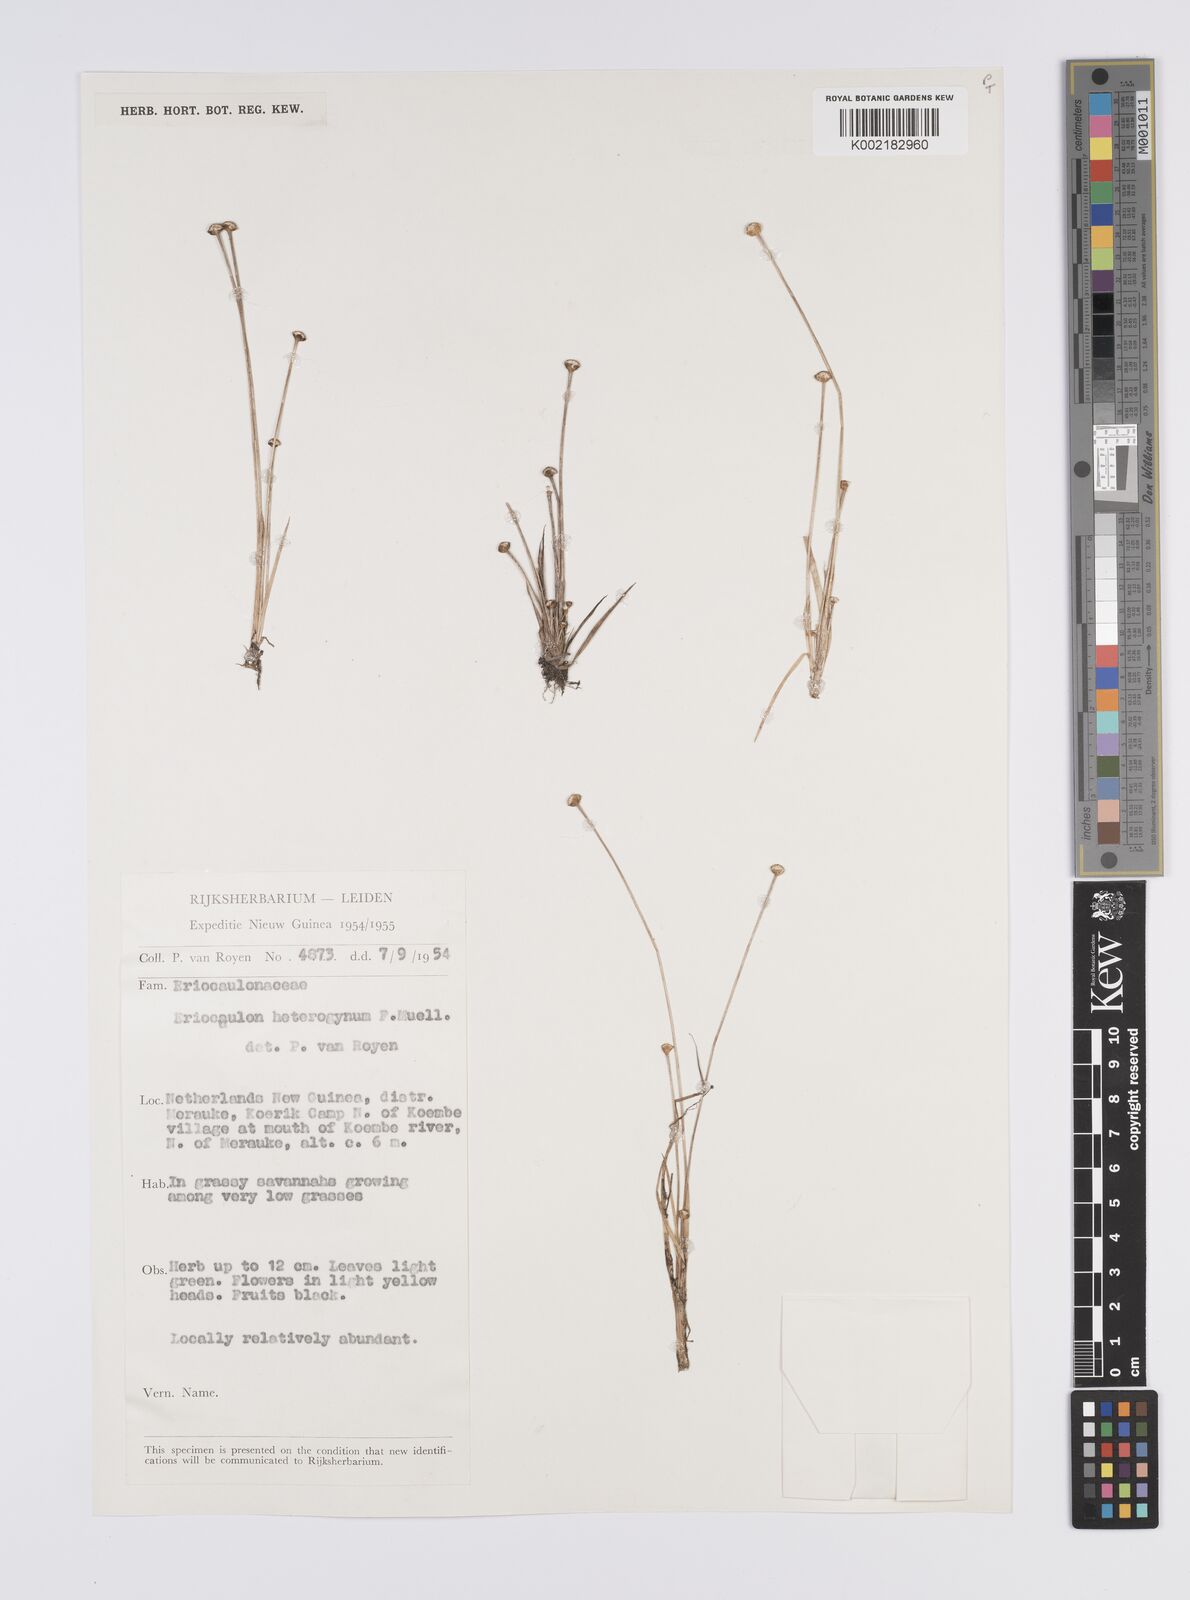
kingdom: Plantae
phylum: Tracheophyta
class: Liliopsida
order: Poales
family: Eriocaulaceae
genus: Eriocaulon
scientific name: Eriocaulon depressum
